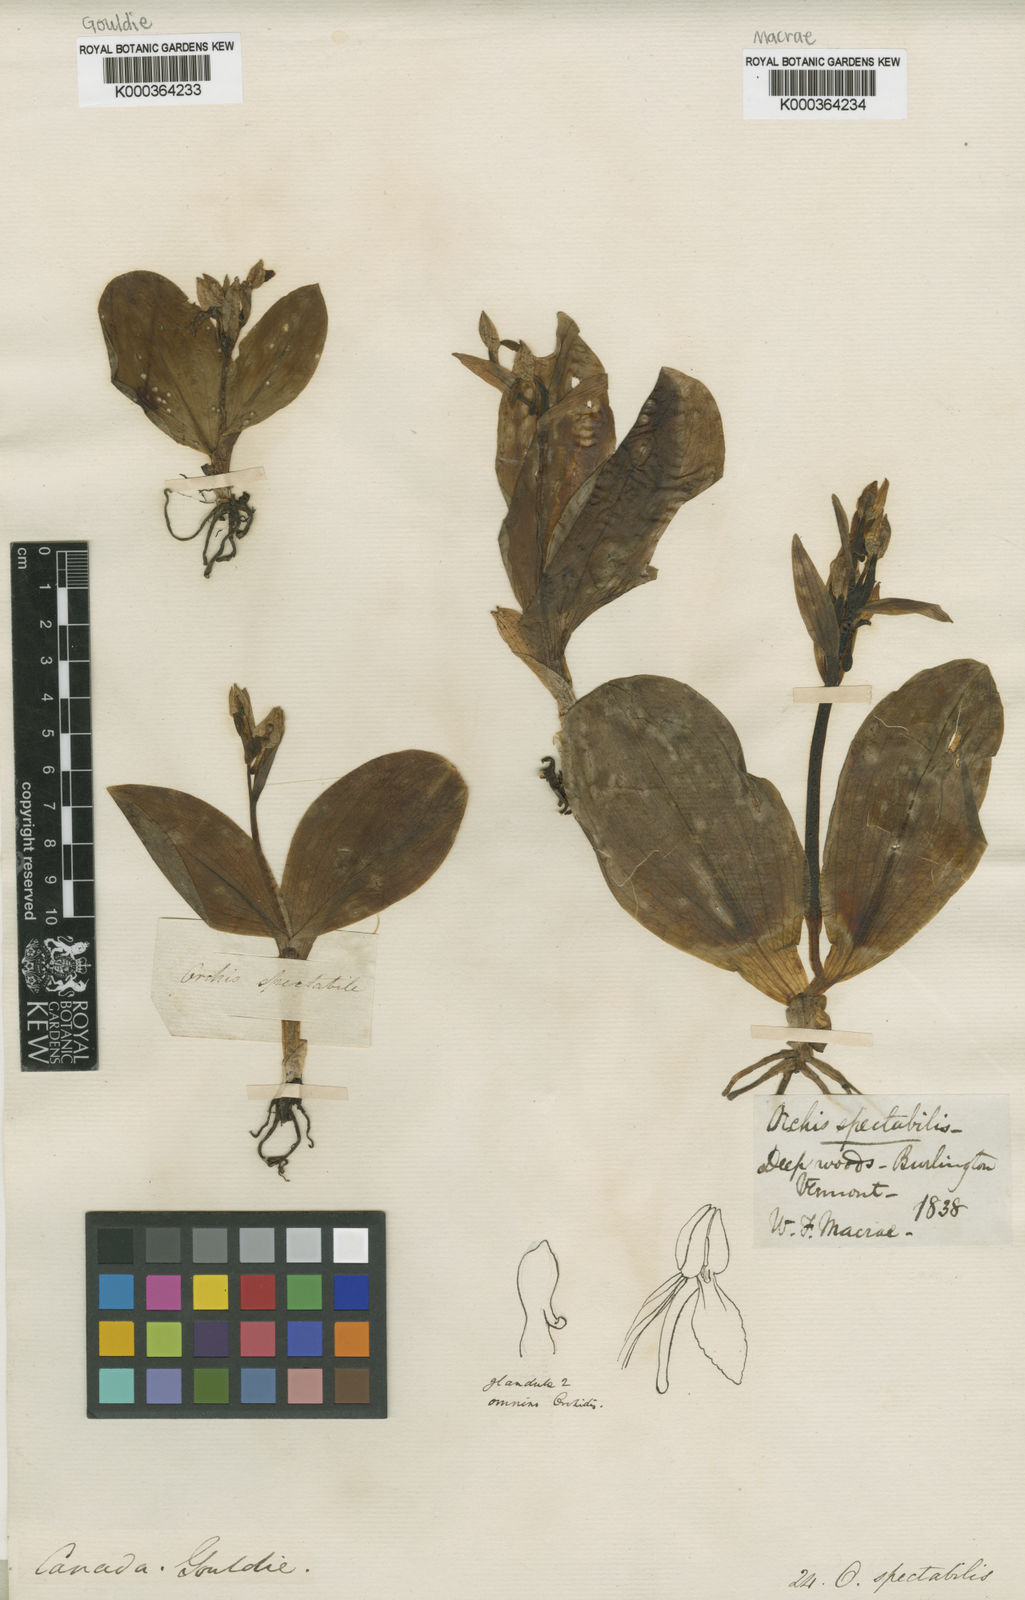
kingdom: Plantae
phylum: Tracheophyta
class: Liliopsida
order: Asparagales
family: Orchidaceae
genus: Galearis
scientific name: Galearis spectabilis
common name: Purple-hooded orchis
